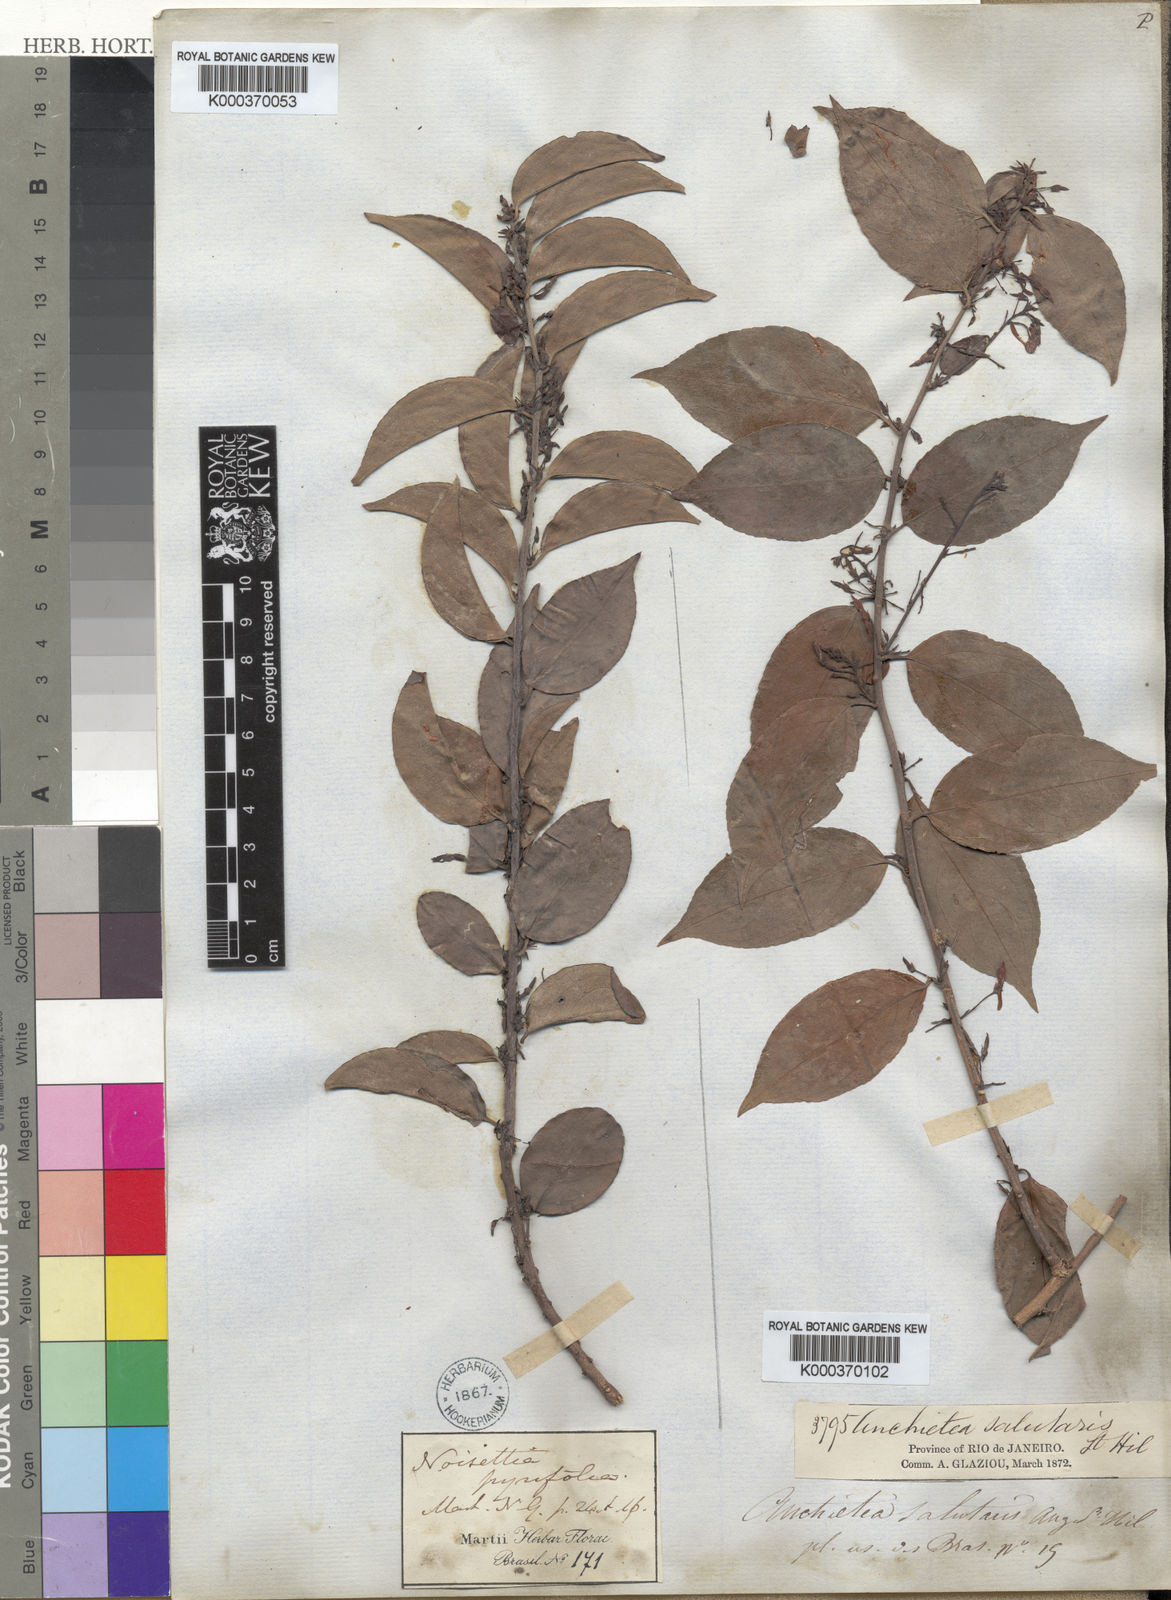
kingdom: Plantae
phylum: Tracheophyta
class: Magnoliopsida
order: Malpighiales
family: Violaceae
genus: Anchietea
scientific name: Anchietea pyrifolia
